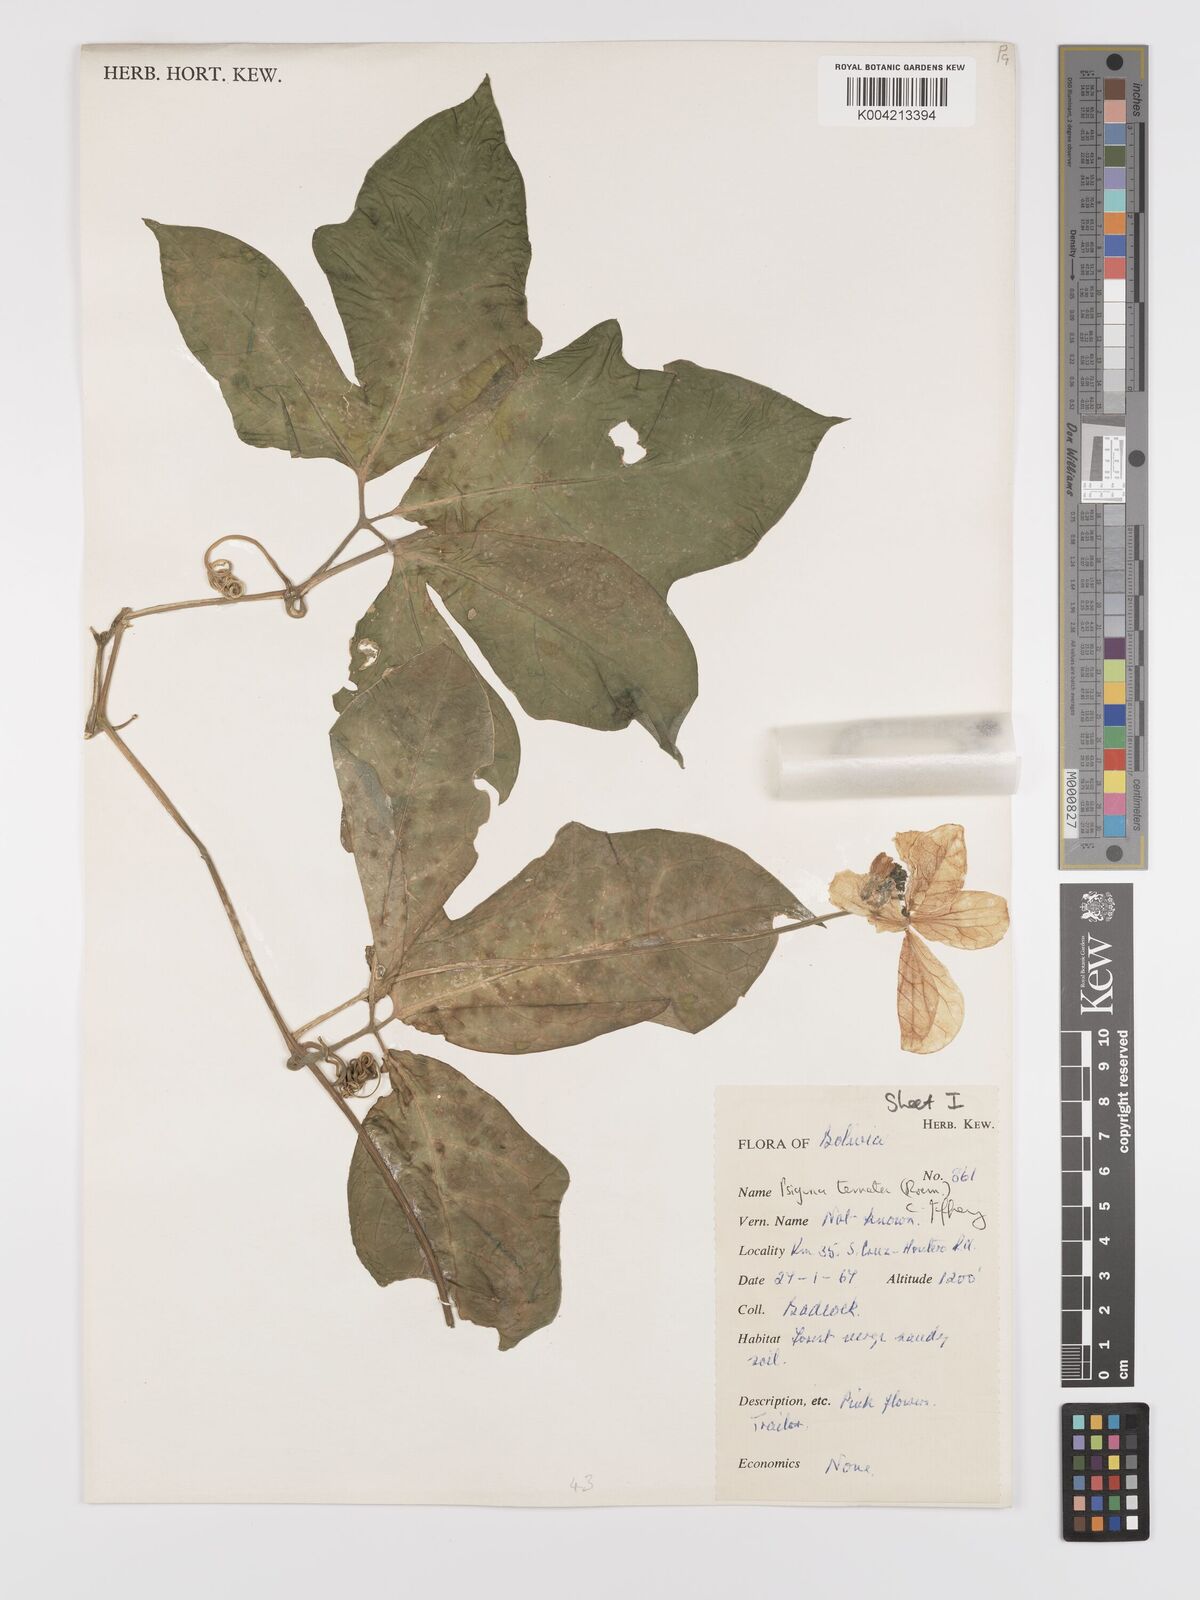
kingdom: Plantae
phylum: Tracheophyta
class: Magnoliopsida
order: Cucurbitales
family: Cucurbitaceae
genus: Psiguria
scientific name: Psiguria ternata
